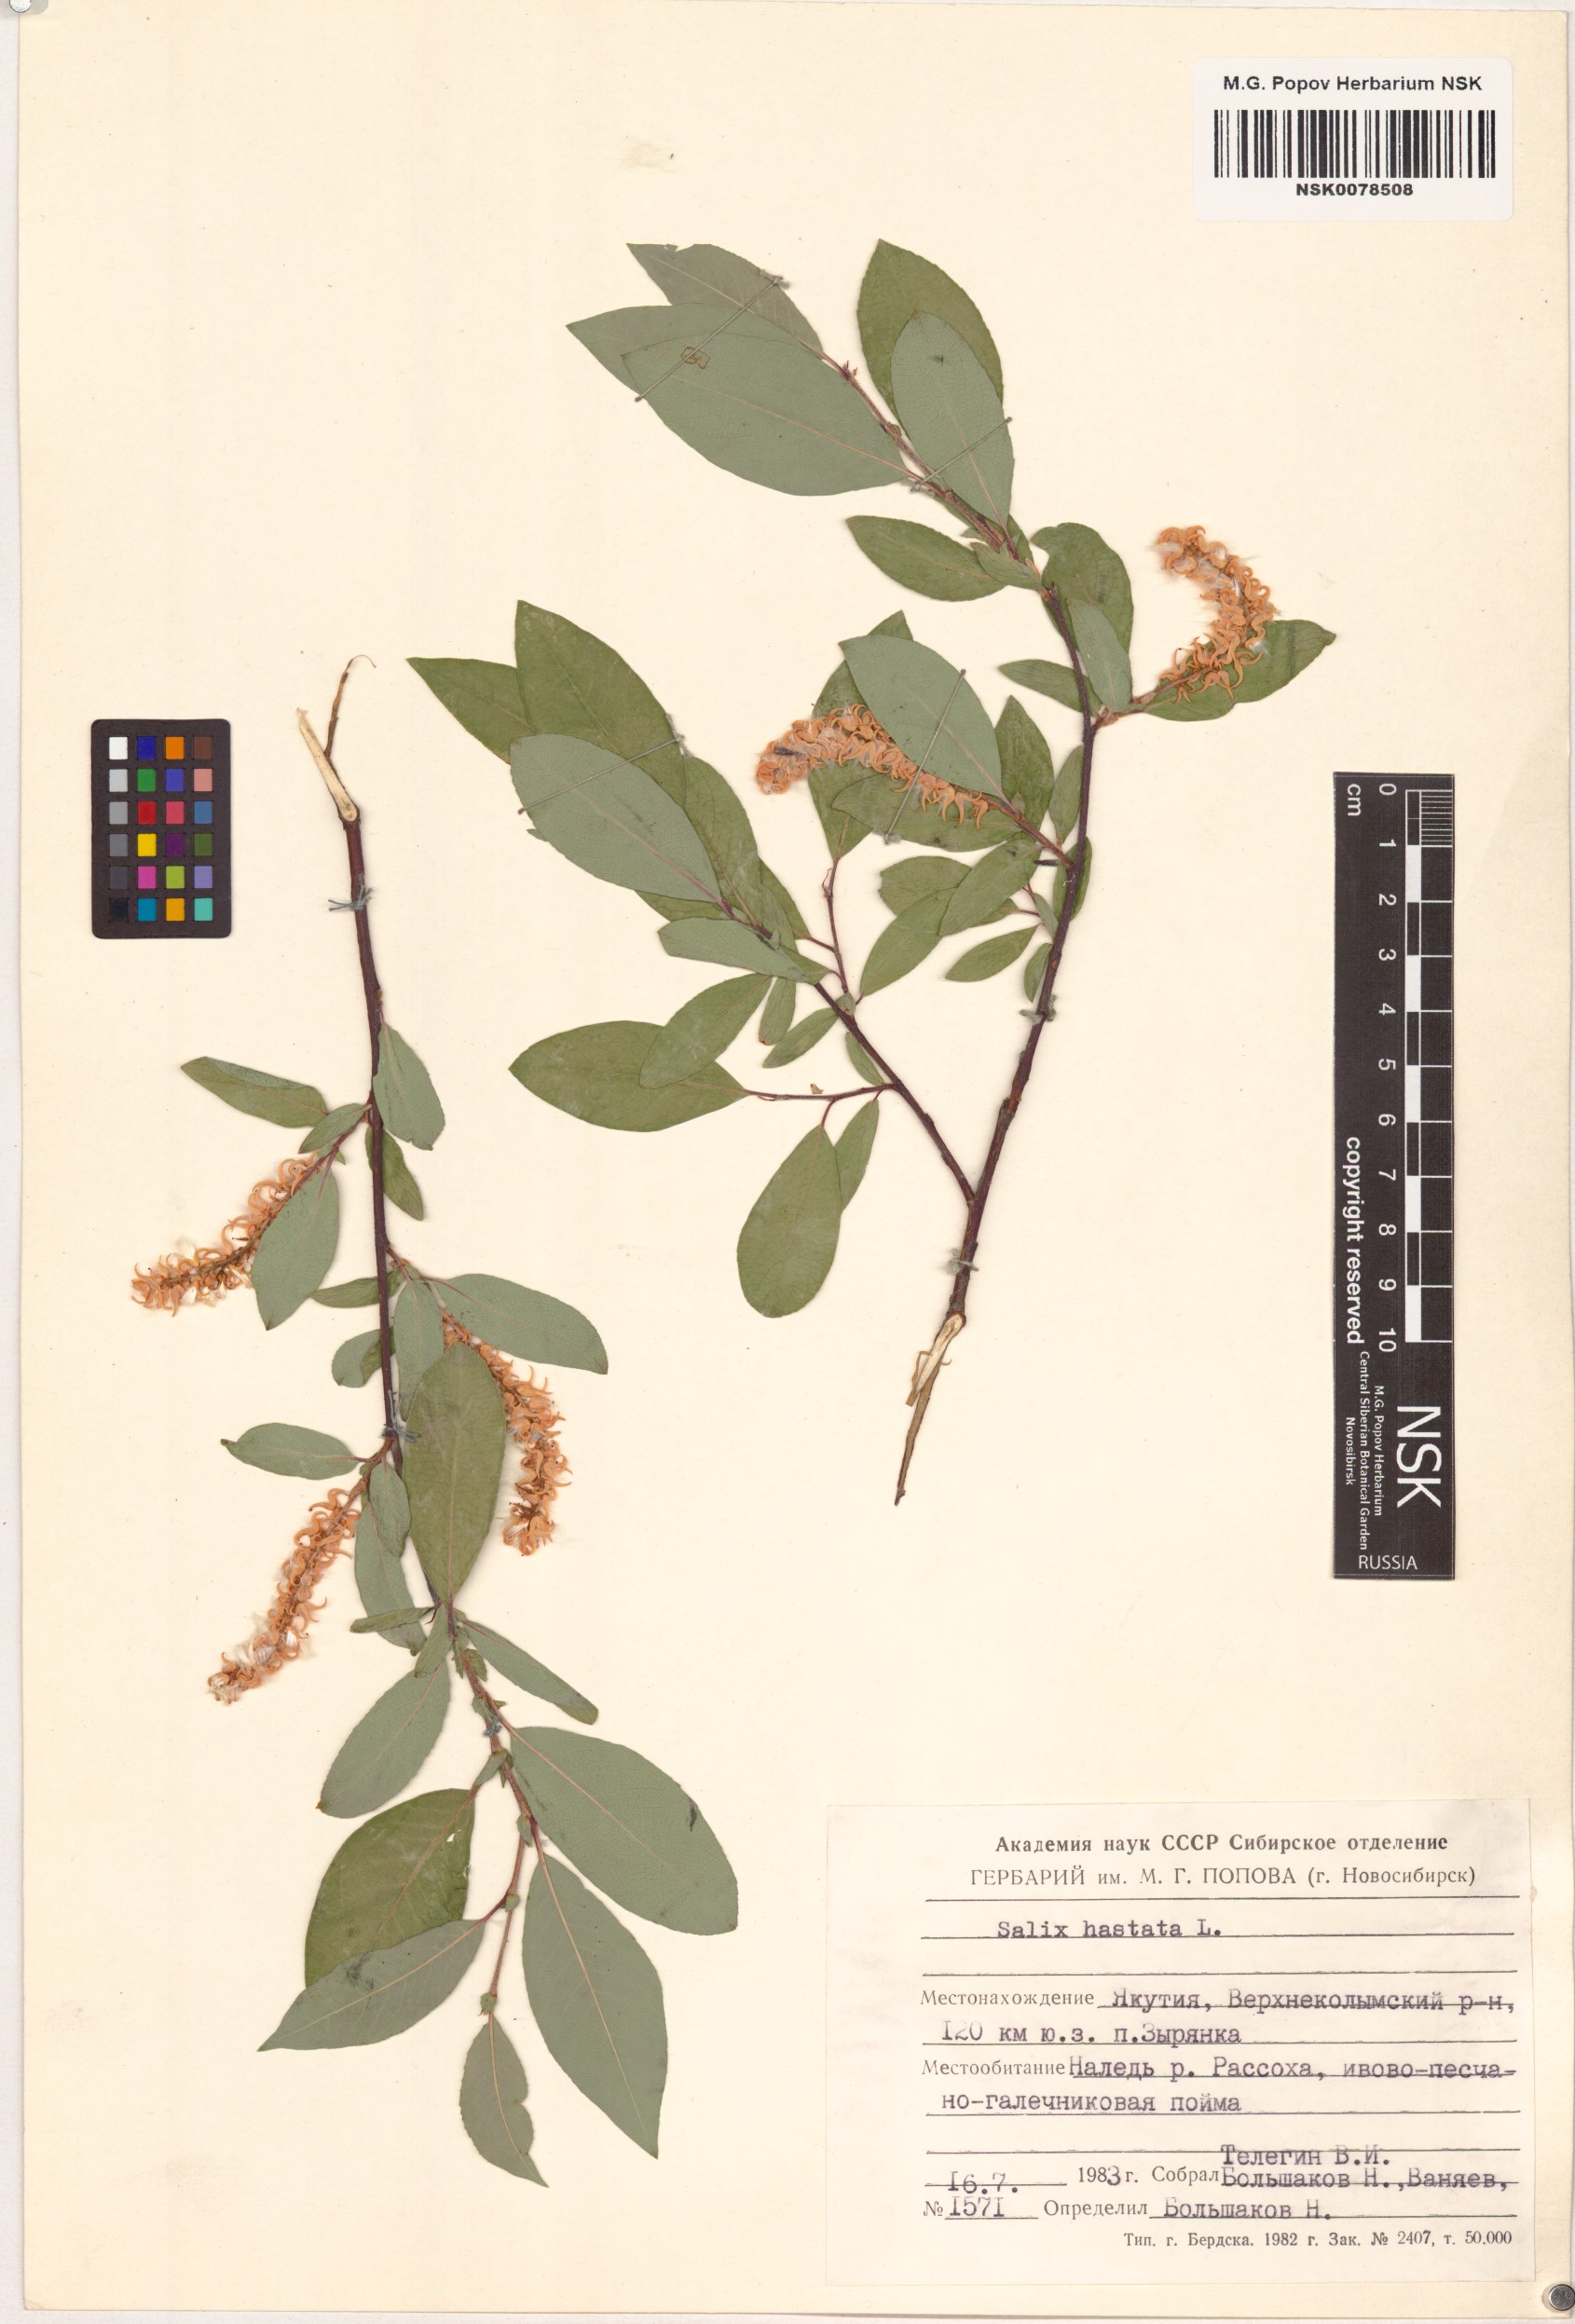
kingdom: Plantae
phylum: Tracheophyta
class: Magnoliopsida
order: Malpighiales
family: Salicaceae
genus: Salix
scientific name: Salix hastata
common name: Halberd willow
